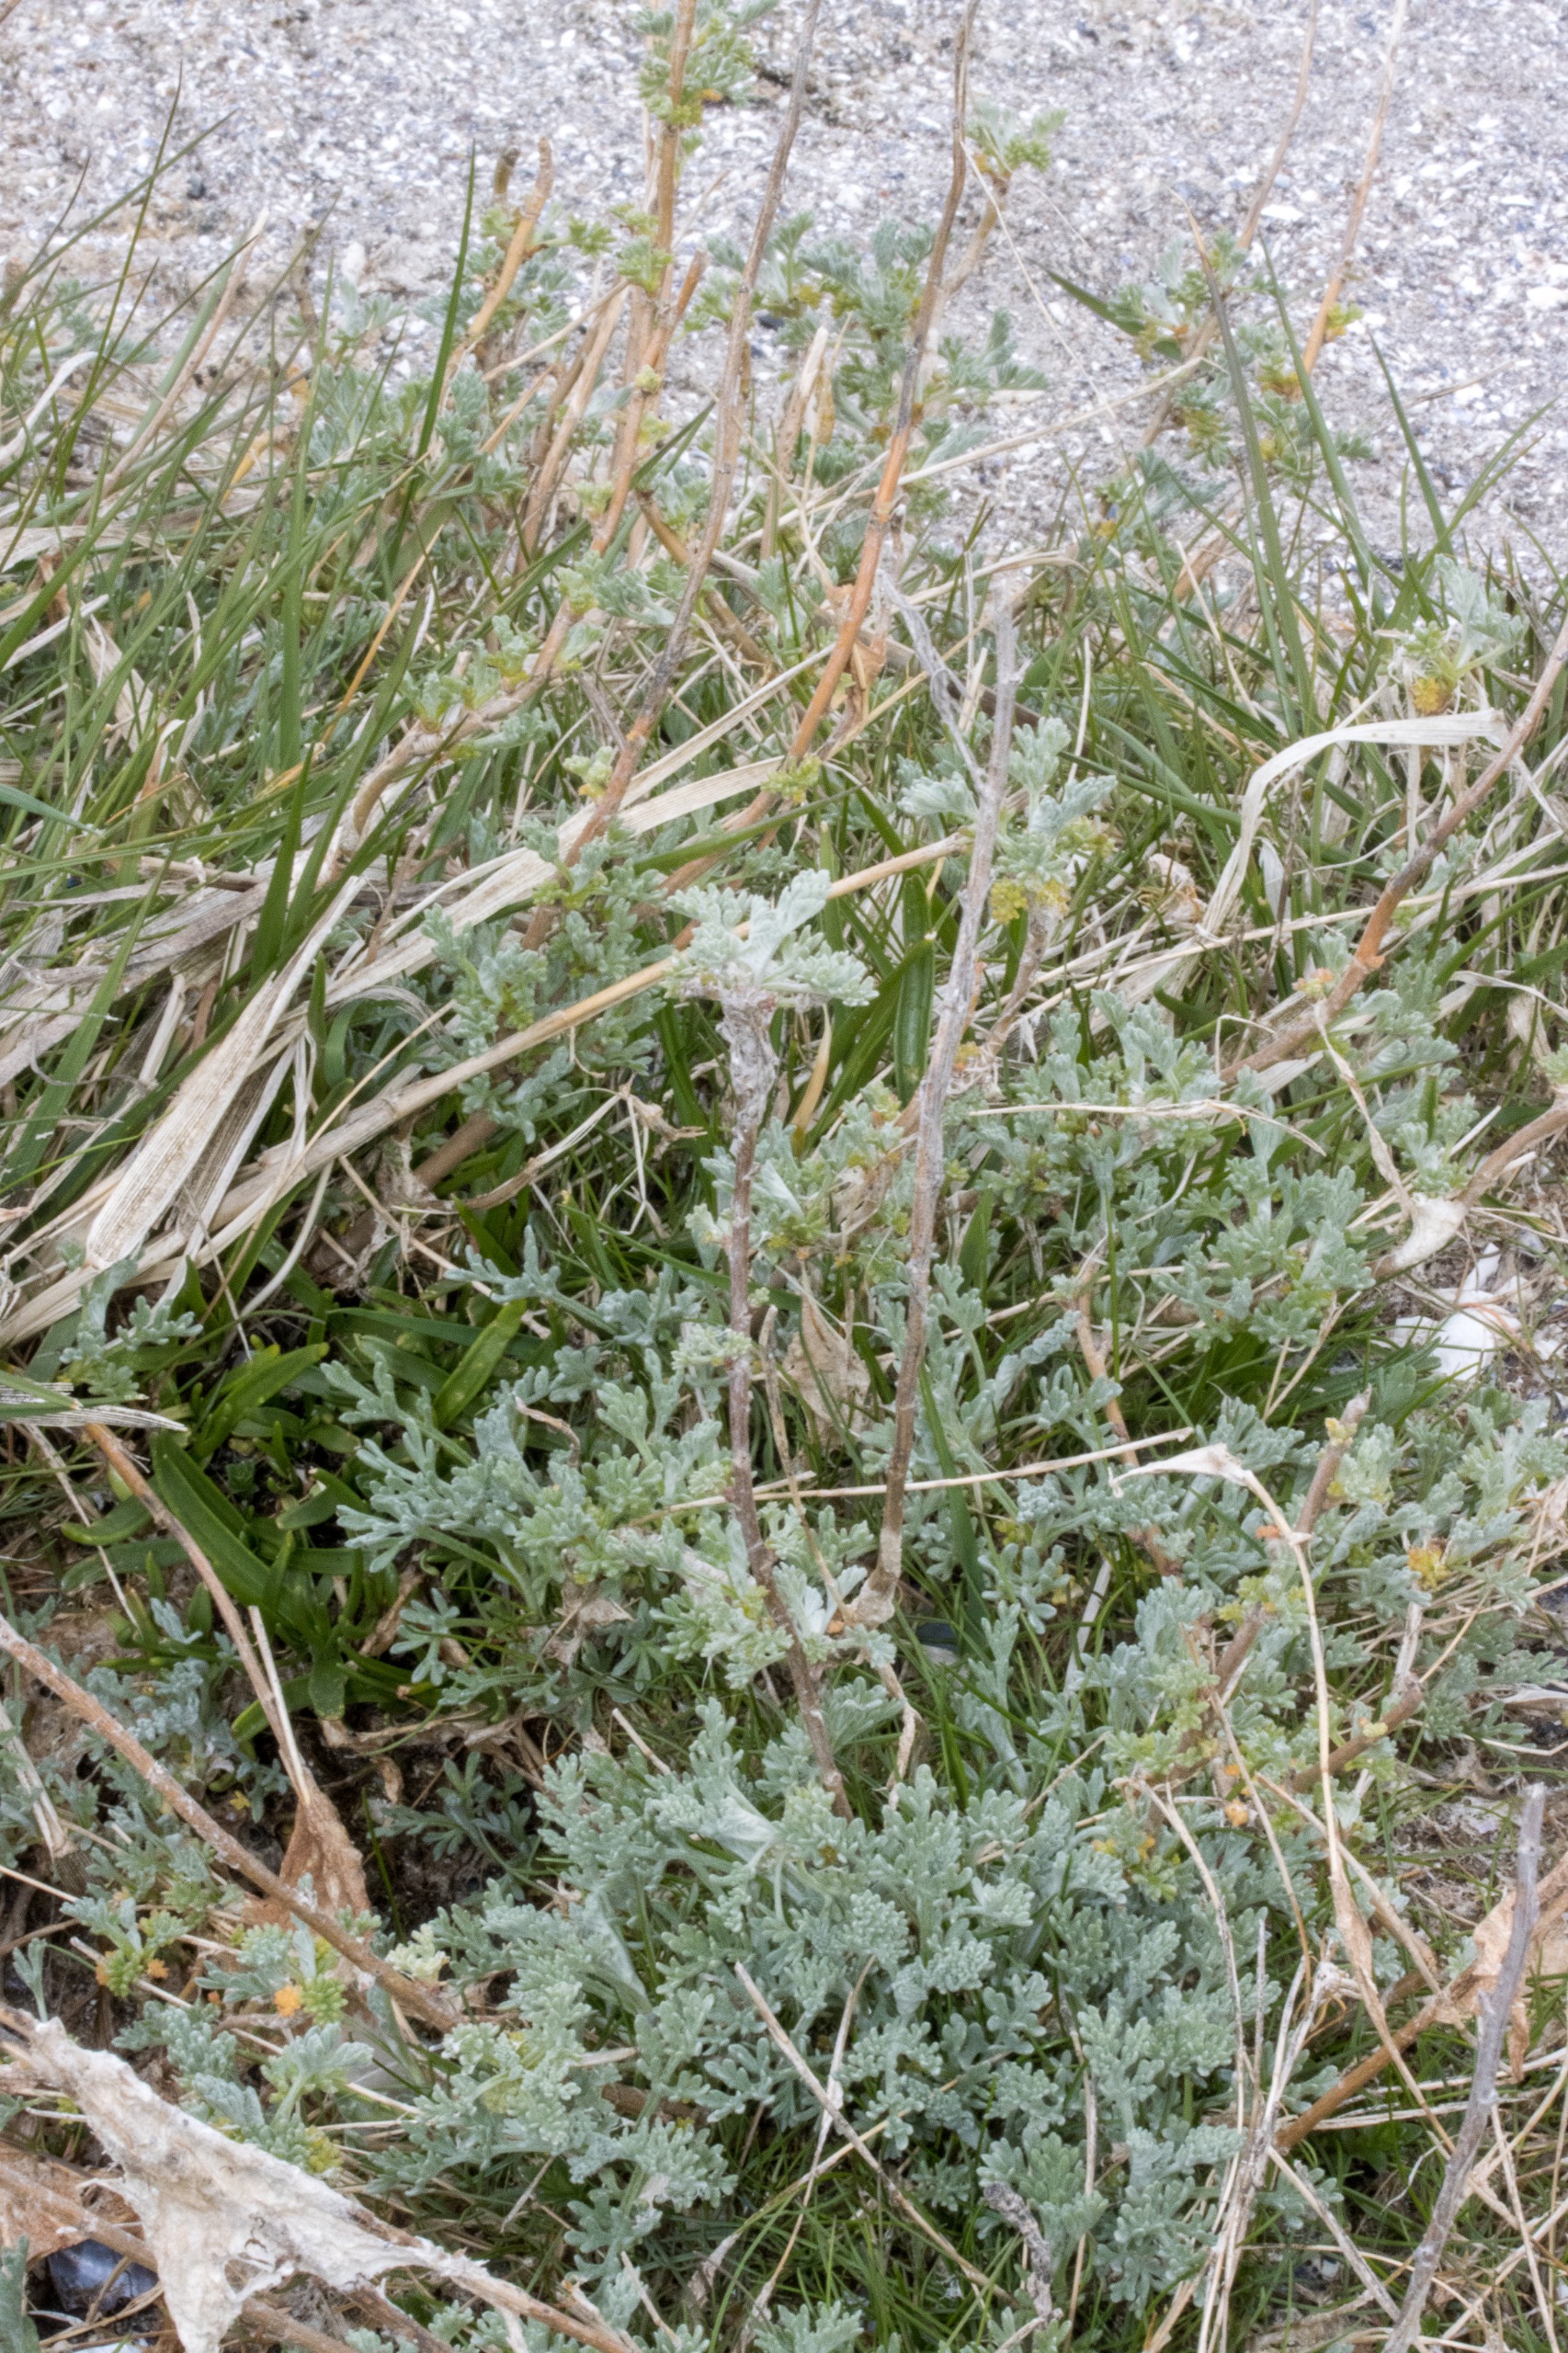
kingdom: Plantae
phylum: Tracheophyta
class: Magnoliopsida
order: Asterales
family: Asteraceae
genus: Artemisia
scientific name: Artemisia maritima
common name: Strandmalurt
